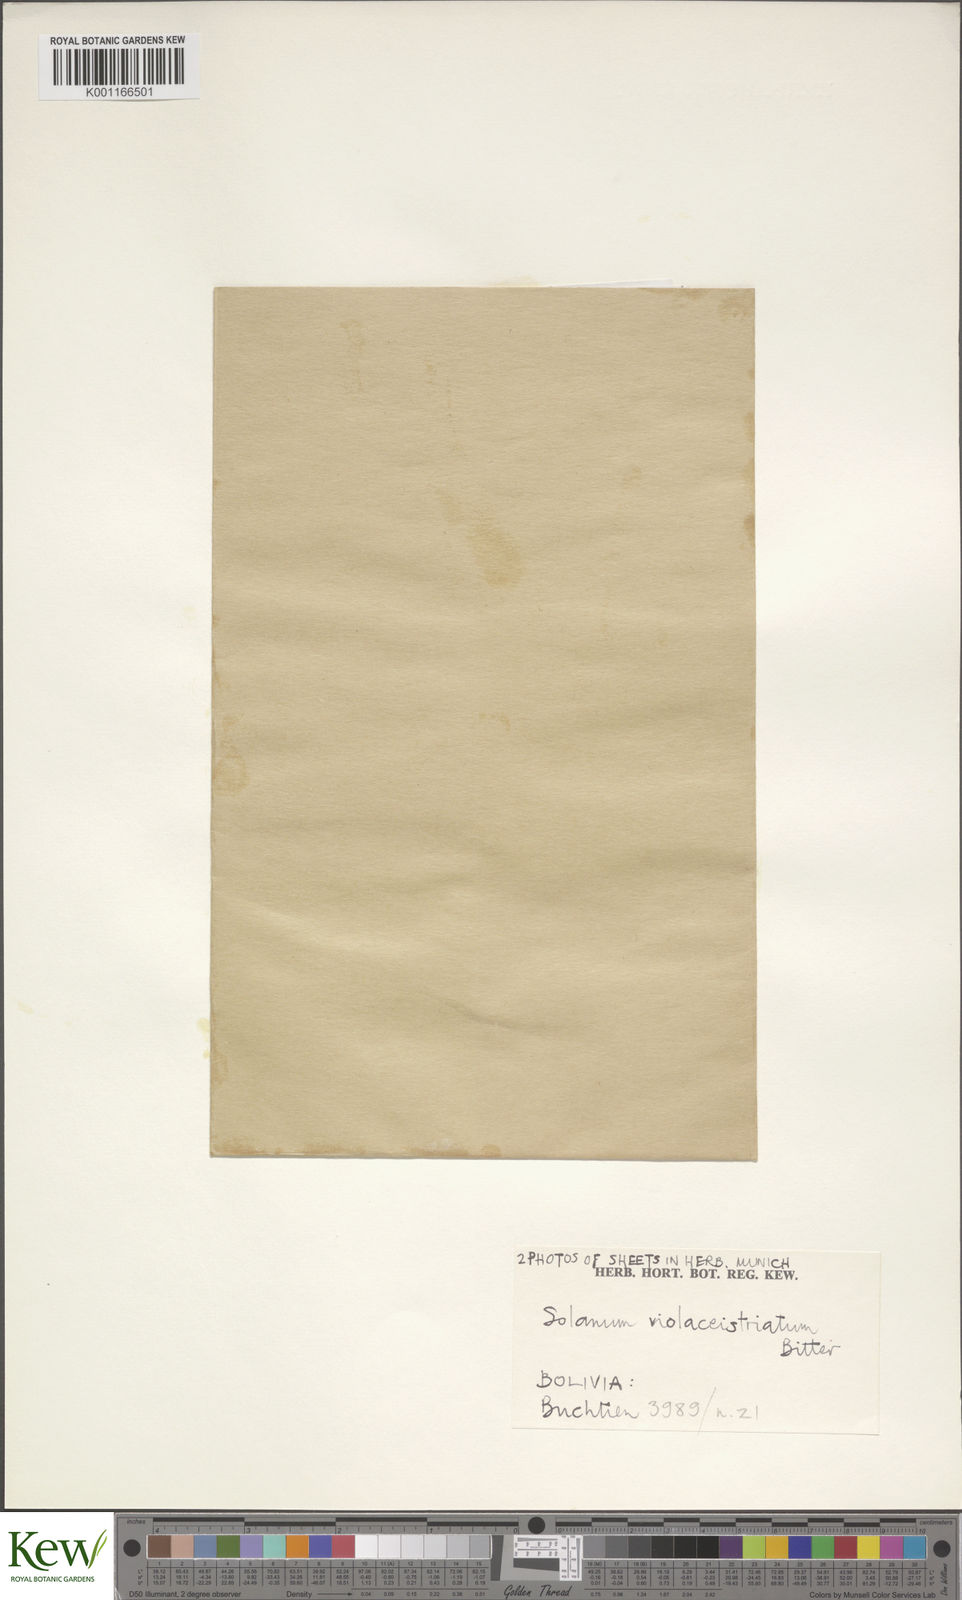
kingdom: Plantae
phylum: Tracheophyta
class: Magnoliopsida
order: Solanales
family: Solanaceae
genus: Solanum
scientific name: Solanum polytrichostylum
